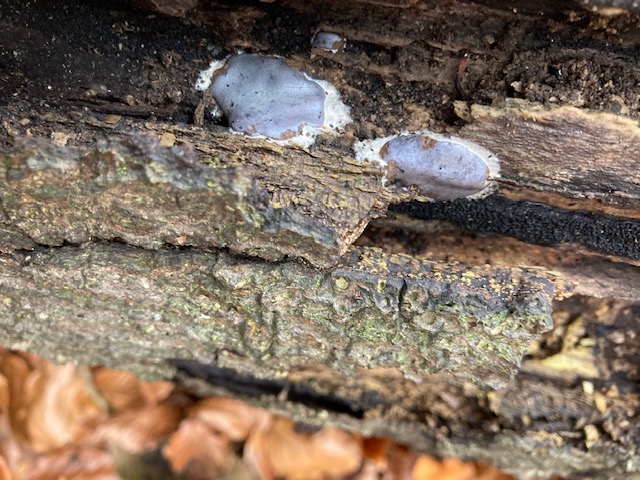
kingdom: Protozoa
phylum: Mycetozoa
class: Myxomycetes
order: Trichiales
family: Dictydiaethaliaceae
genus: Dictydiaethalium
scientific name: Dictydiaethalium plumbeum
